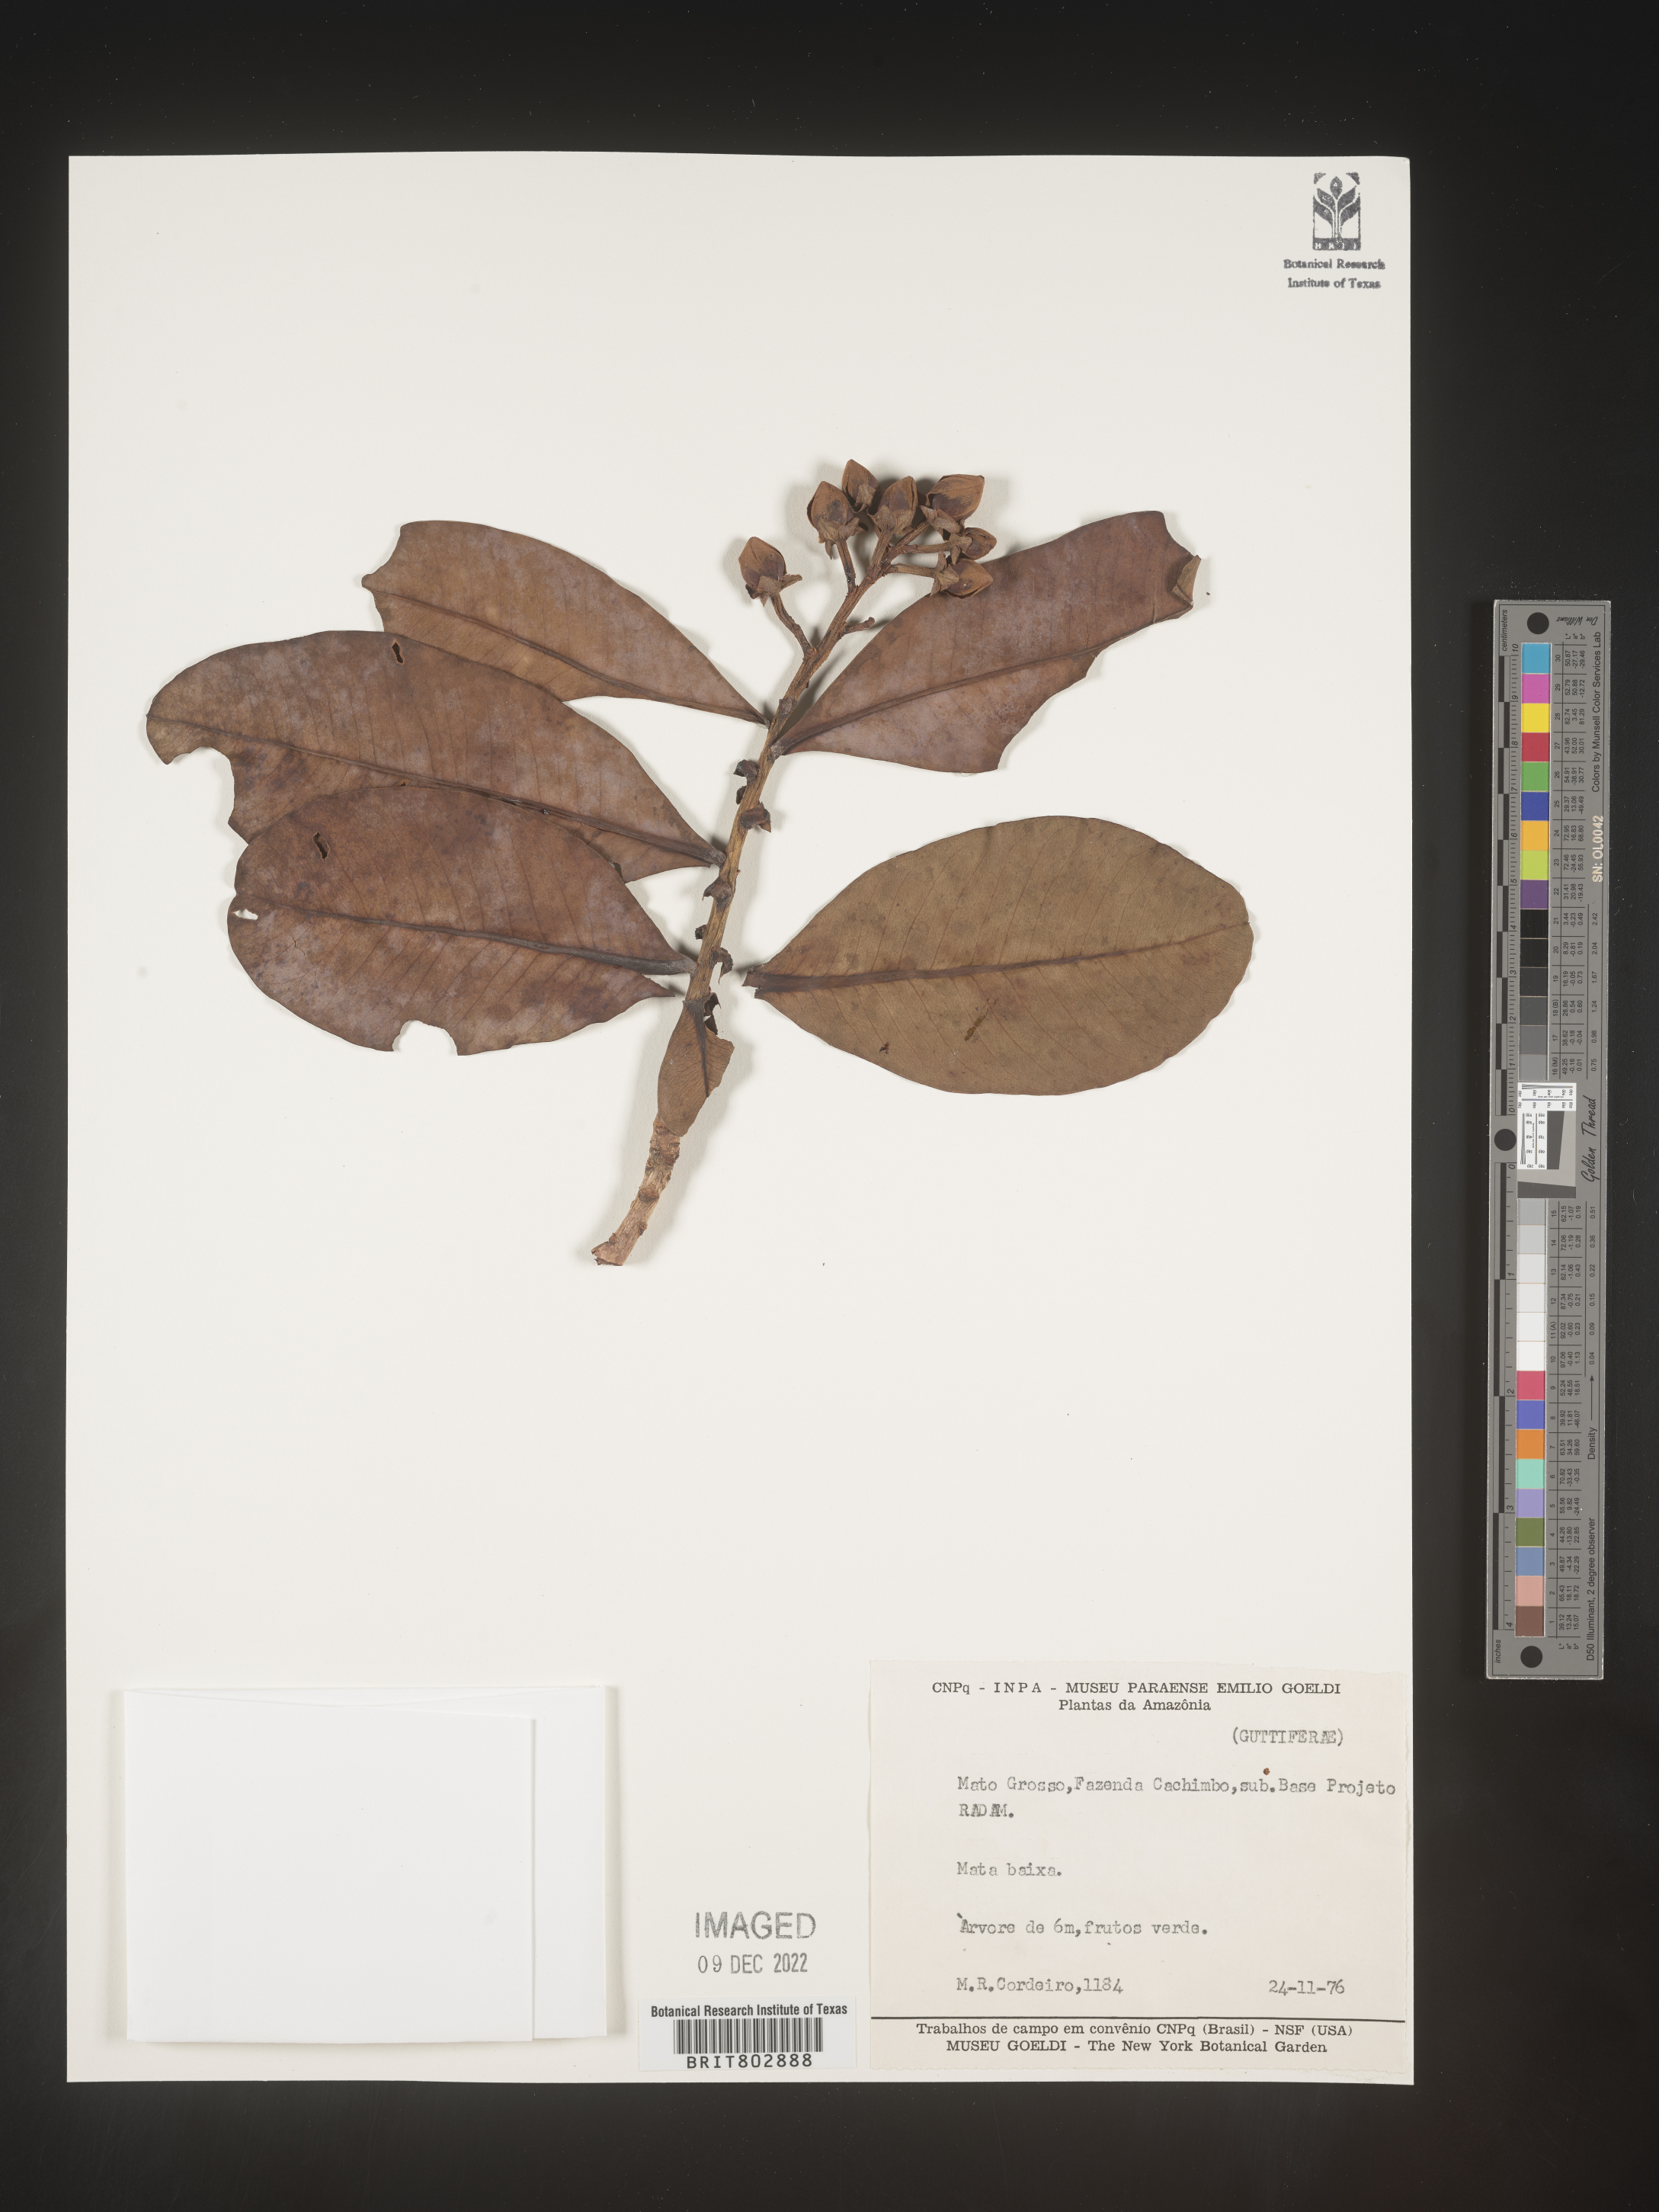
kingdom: Plantae
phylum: Tracheophyta
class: Magnoliopsida
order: Malpighiales
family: Calophyllaceae
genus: Kielmeyera
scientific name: Kielmeyera
